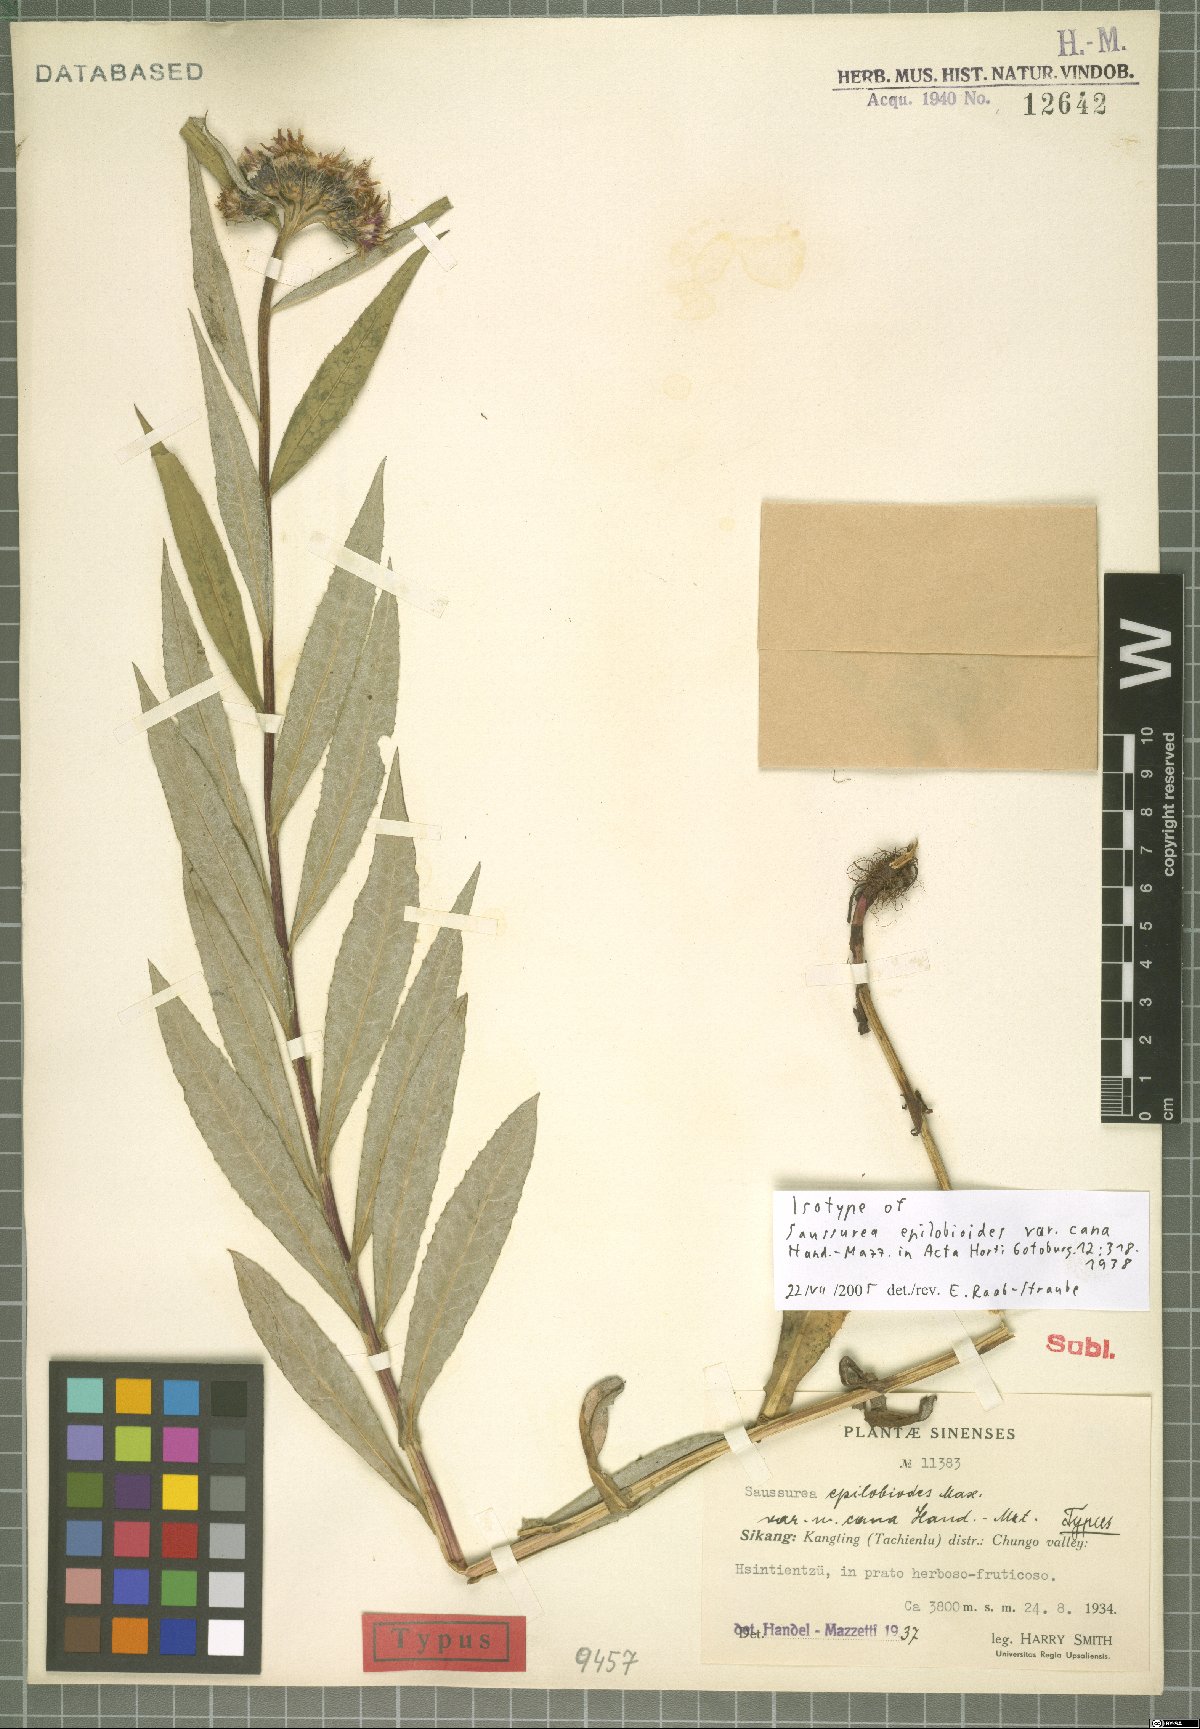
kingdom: Plantae
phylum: Tracheophyta
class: Magnoliopsida
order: Asterales
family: Asteraceae
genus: Saussurea
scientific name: Saussurea epilobioides
